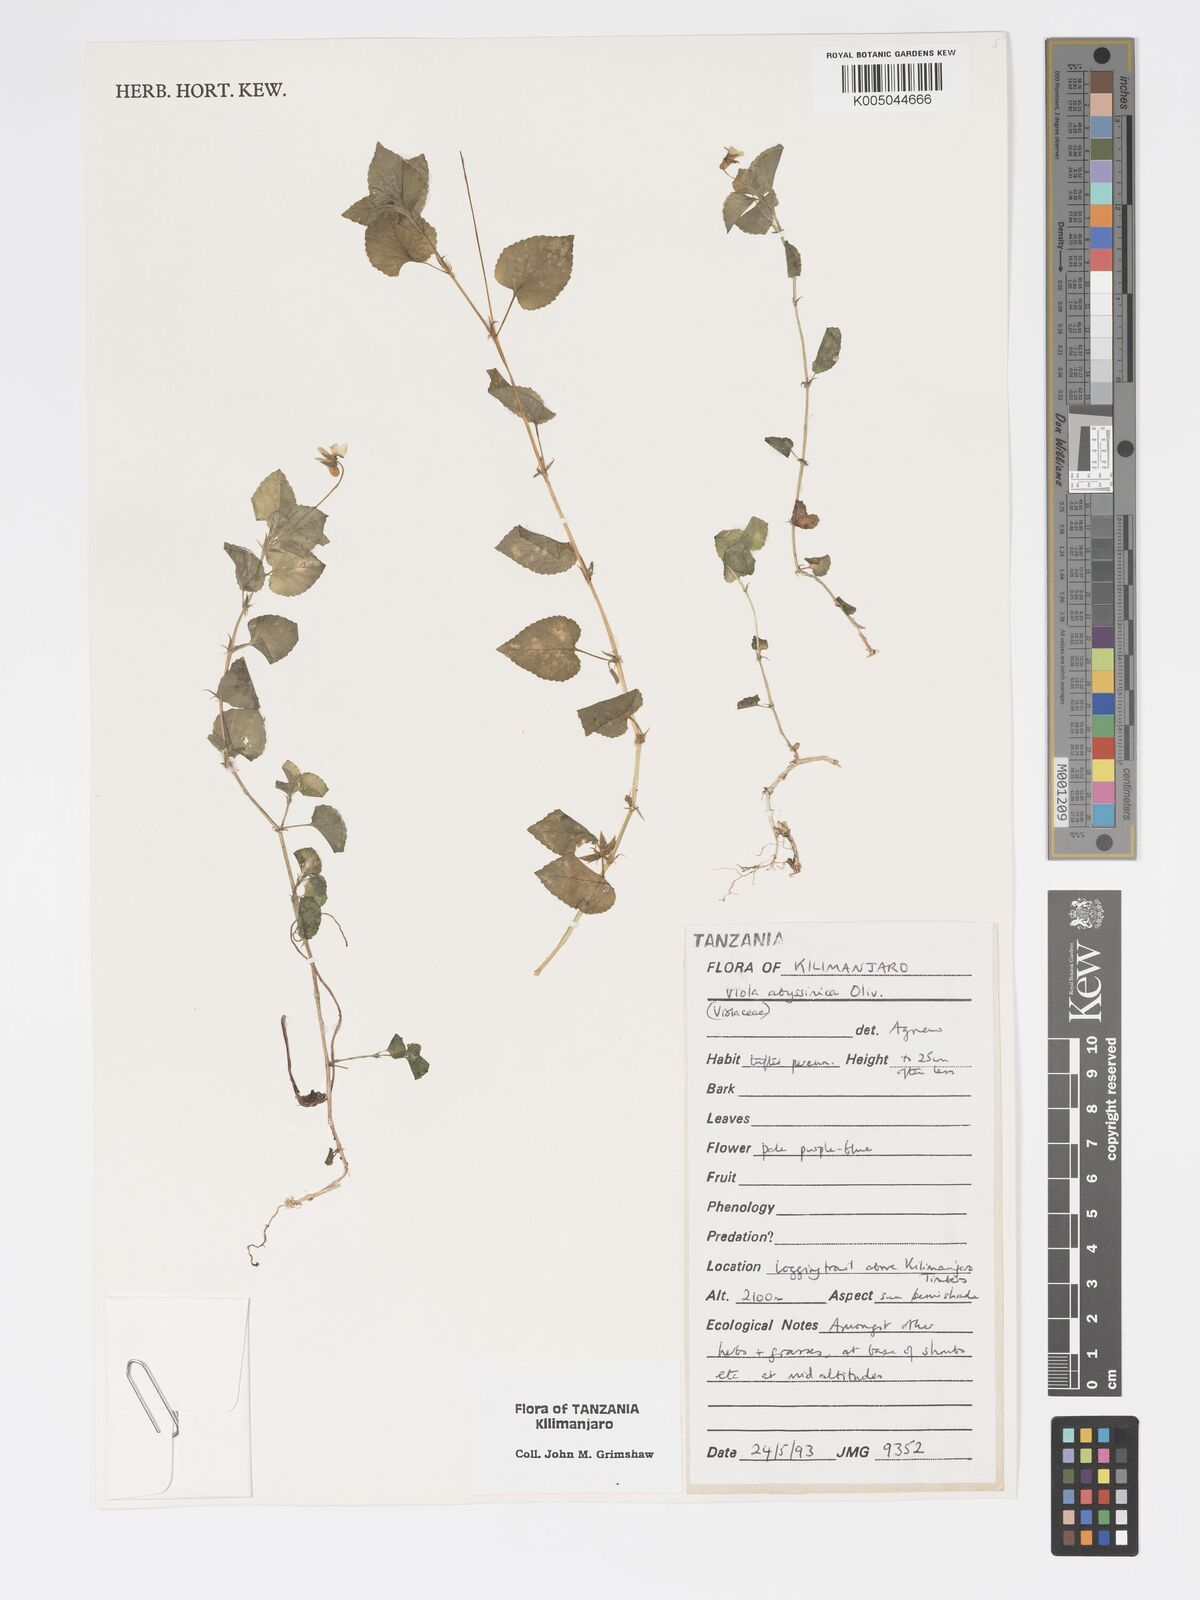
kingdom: Plantae
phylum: Tracheophyta
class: Magnoliopsida
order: Malpighiales
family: Violaceae
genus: Viola
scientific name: Viola abyssinica
